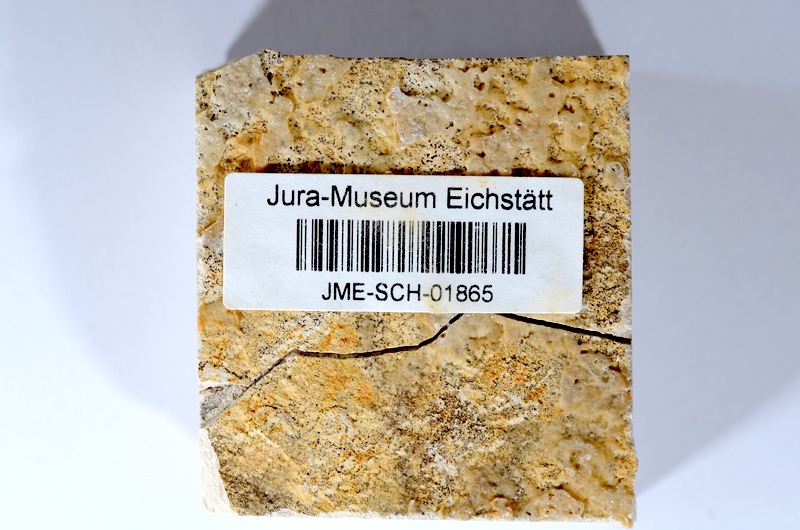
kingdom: Animalia
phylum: Chordata
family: Ascalaboidae
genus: Tharsis
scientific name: Tharsis dubius
